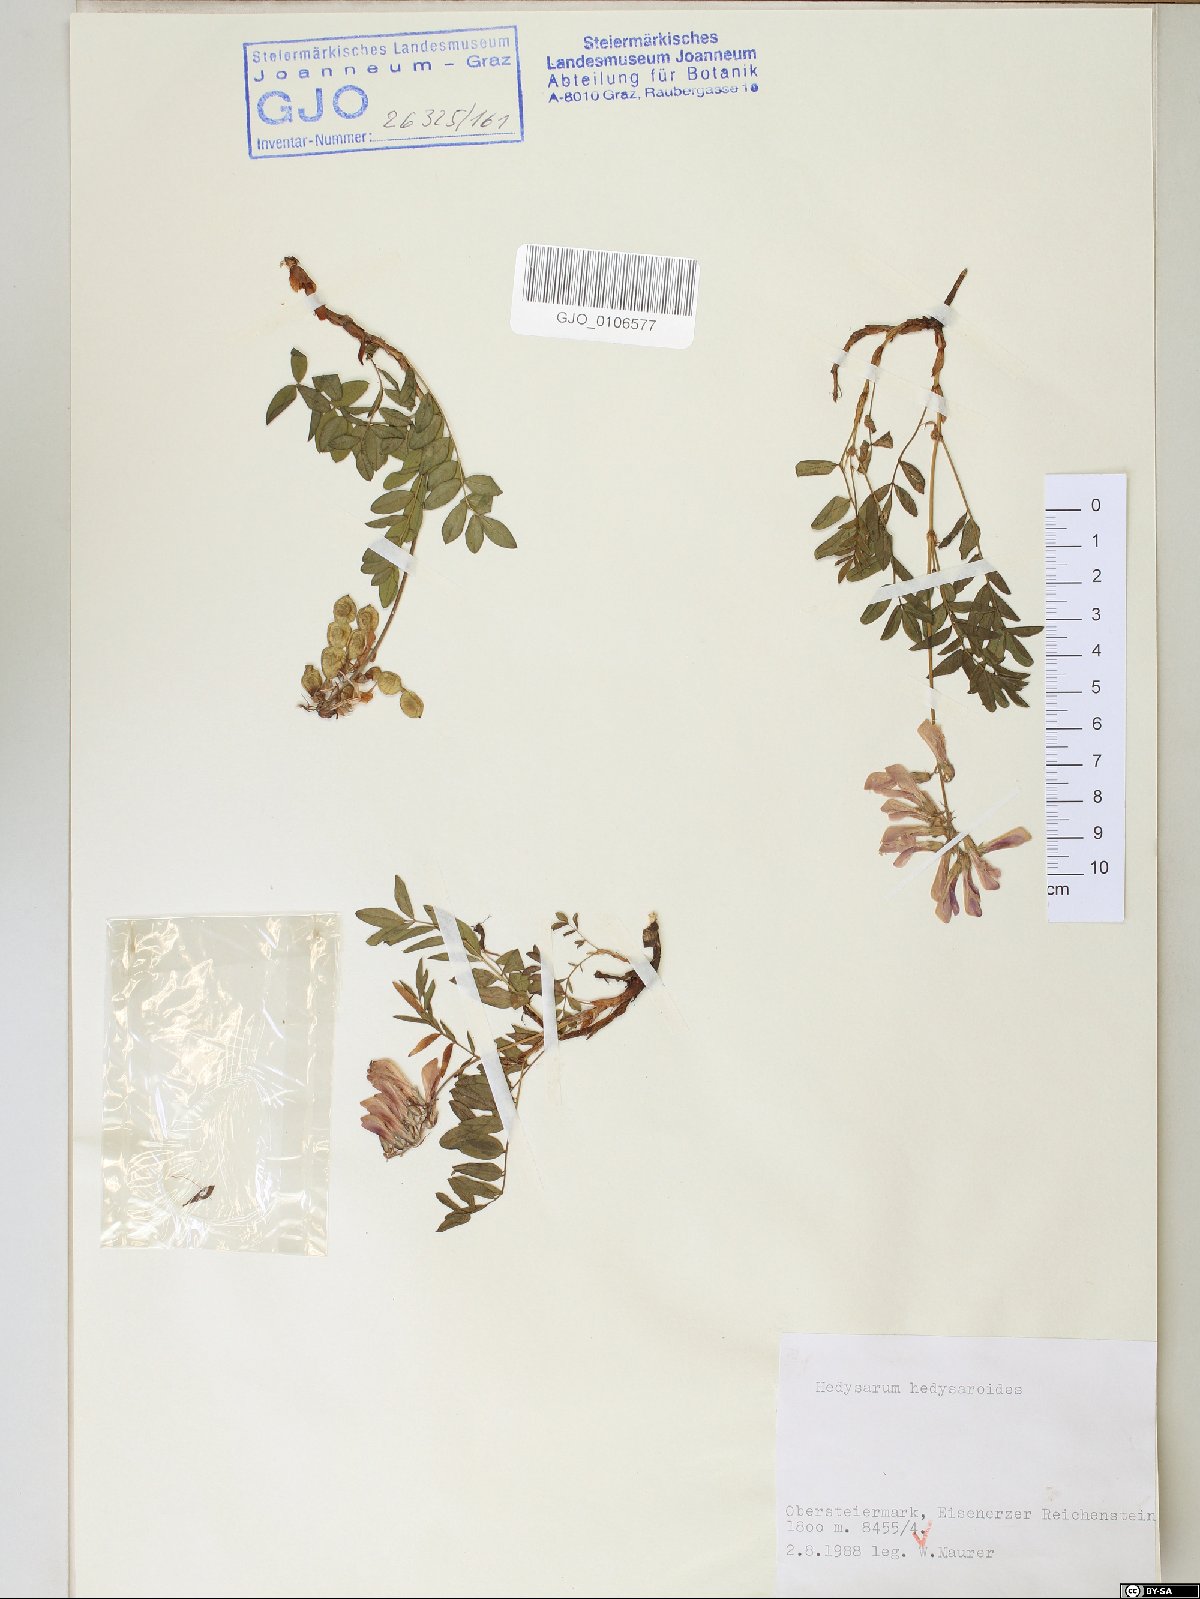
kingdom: Plantae
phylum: Tracheophyta
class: Magnoliopsida
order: Fabales
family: Fabaceae
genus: Hedysarum
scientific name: Hedysarum hedysaroides
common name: Alpine french-honeysuckle
